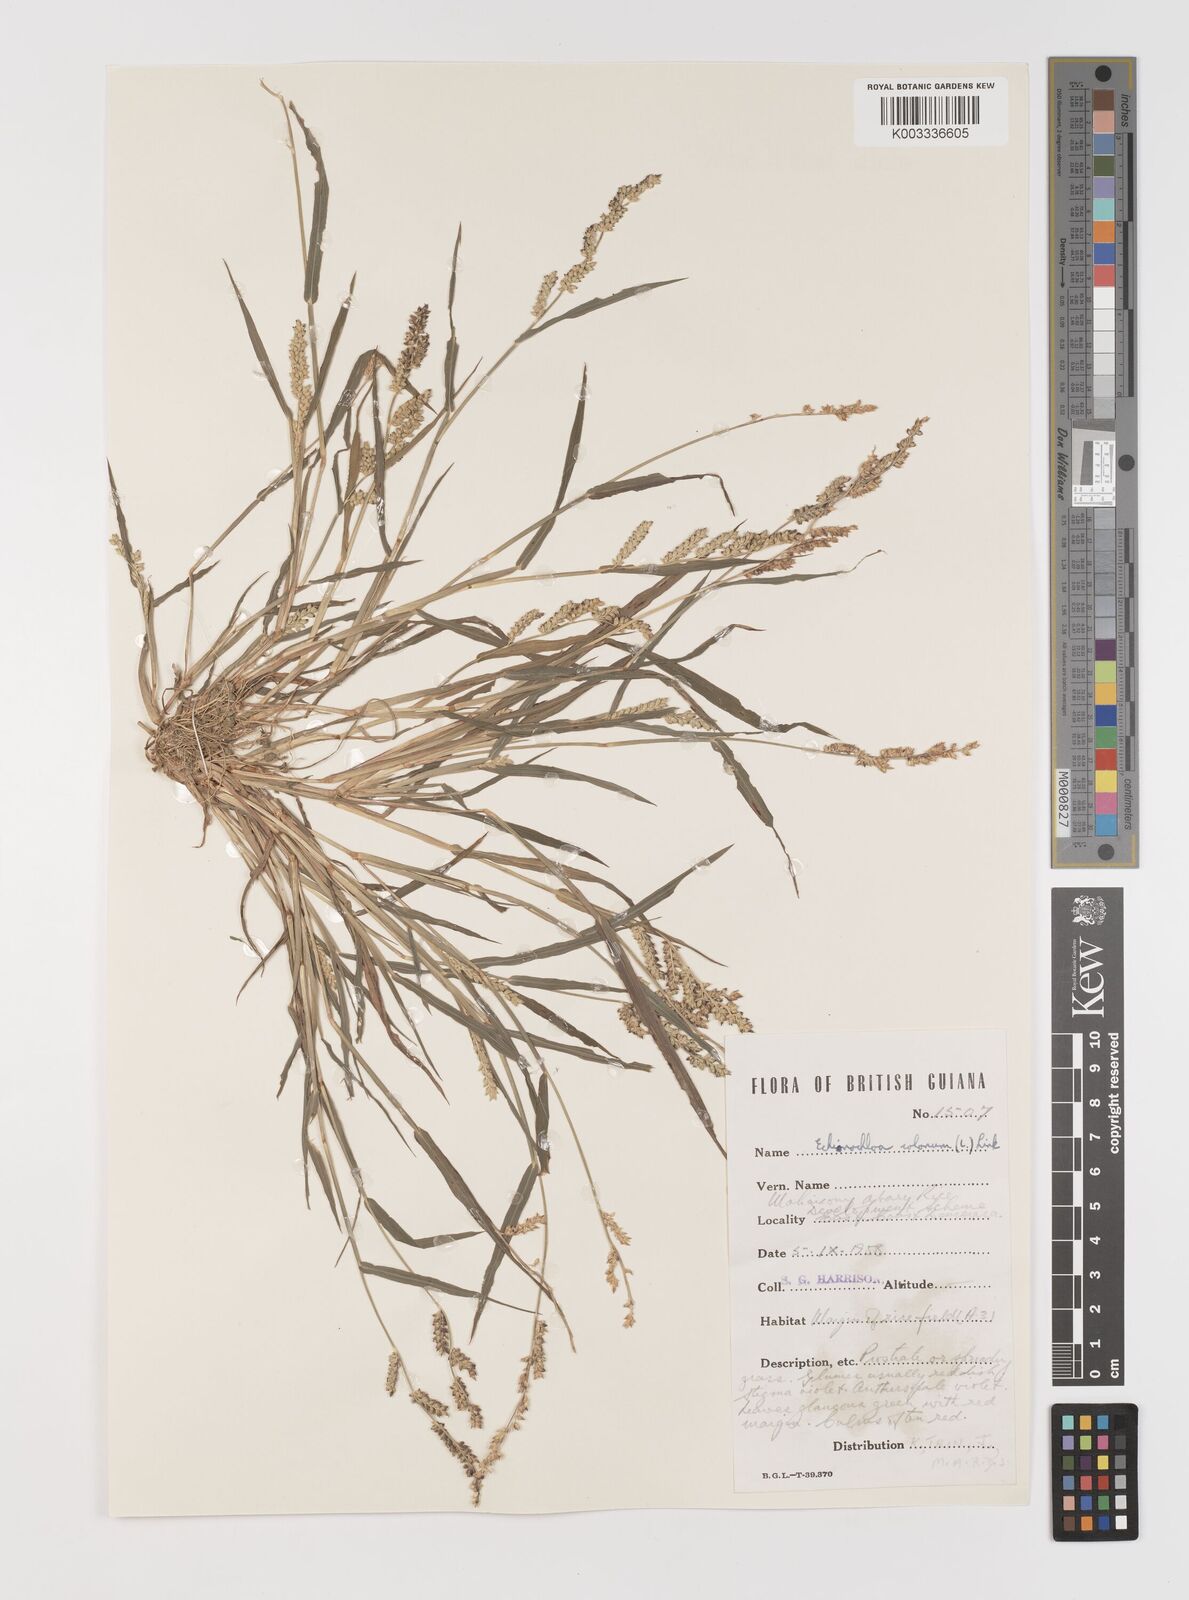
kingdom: Plantae
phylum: Tracheophyta
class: Liliopsida
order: Poales
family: Poaceae
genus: Echinochloa
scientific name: Echinochloa colonum
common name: Jungle rice
